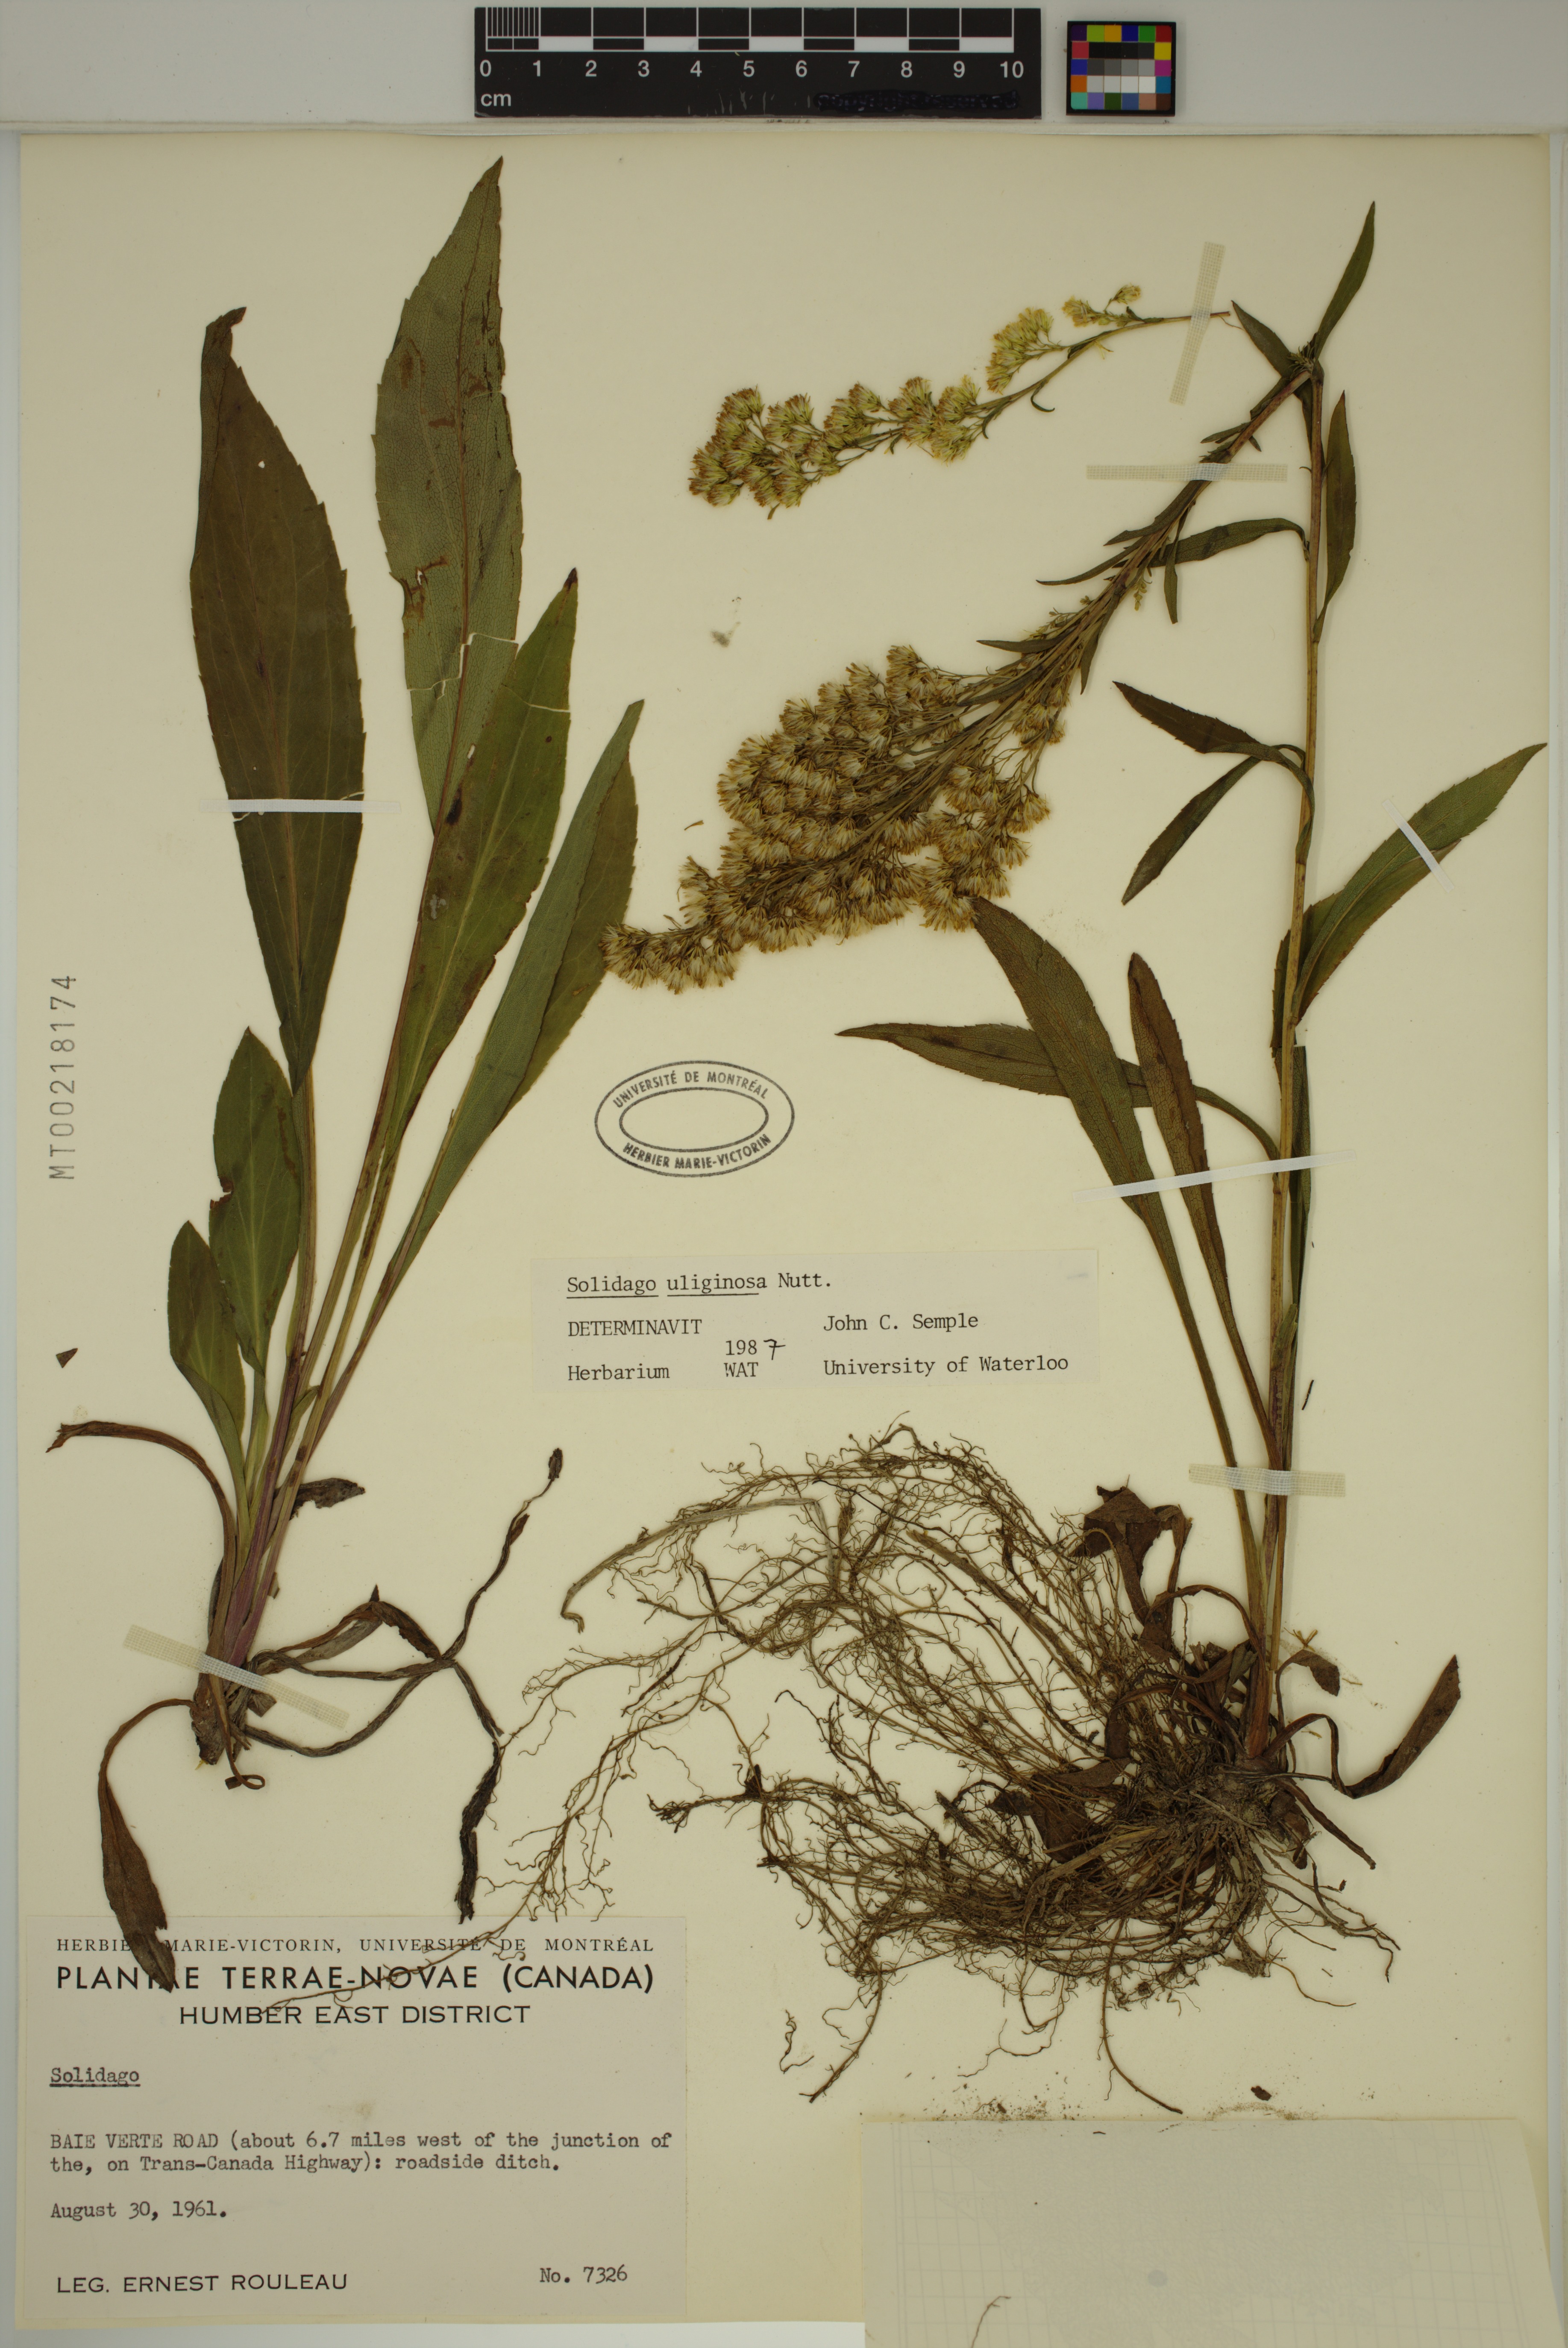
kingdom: Plantae
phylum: Tracheophyta
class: Magnoliopsida
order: Asterales
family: Asteraceae
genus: Solidago
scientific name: Solidago uliginosa
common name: Bog goldenrod
